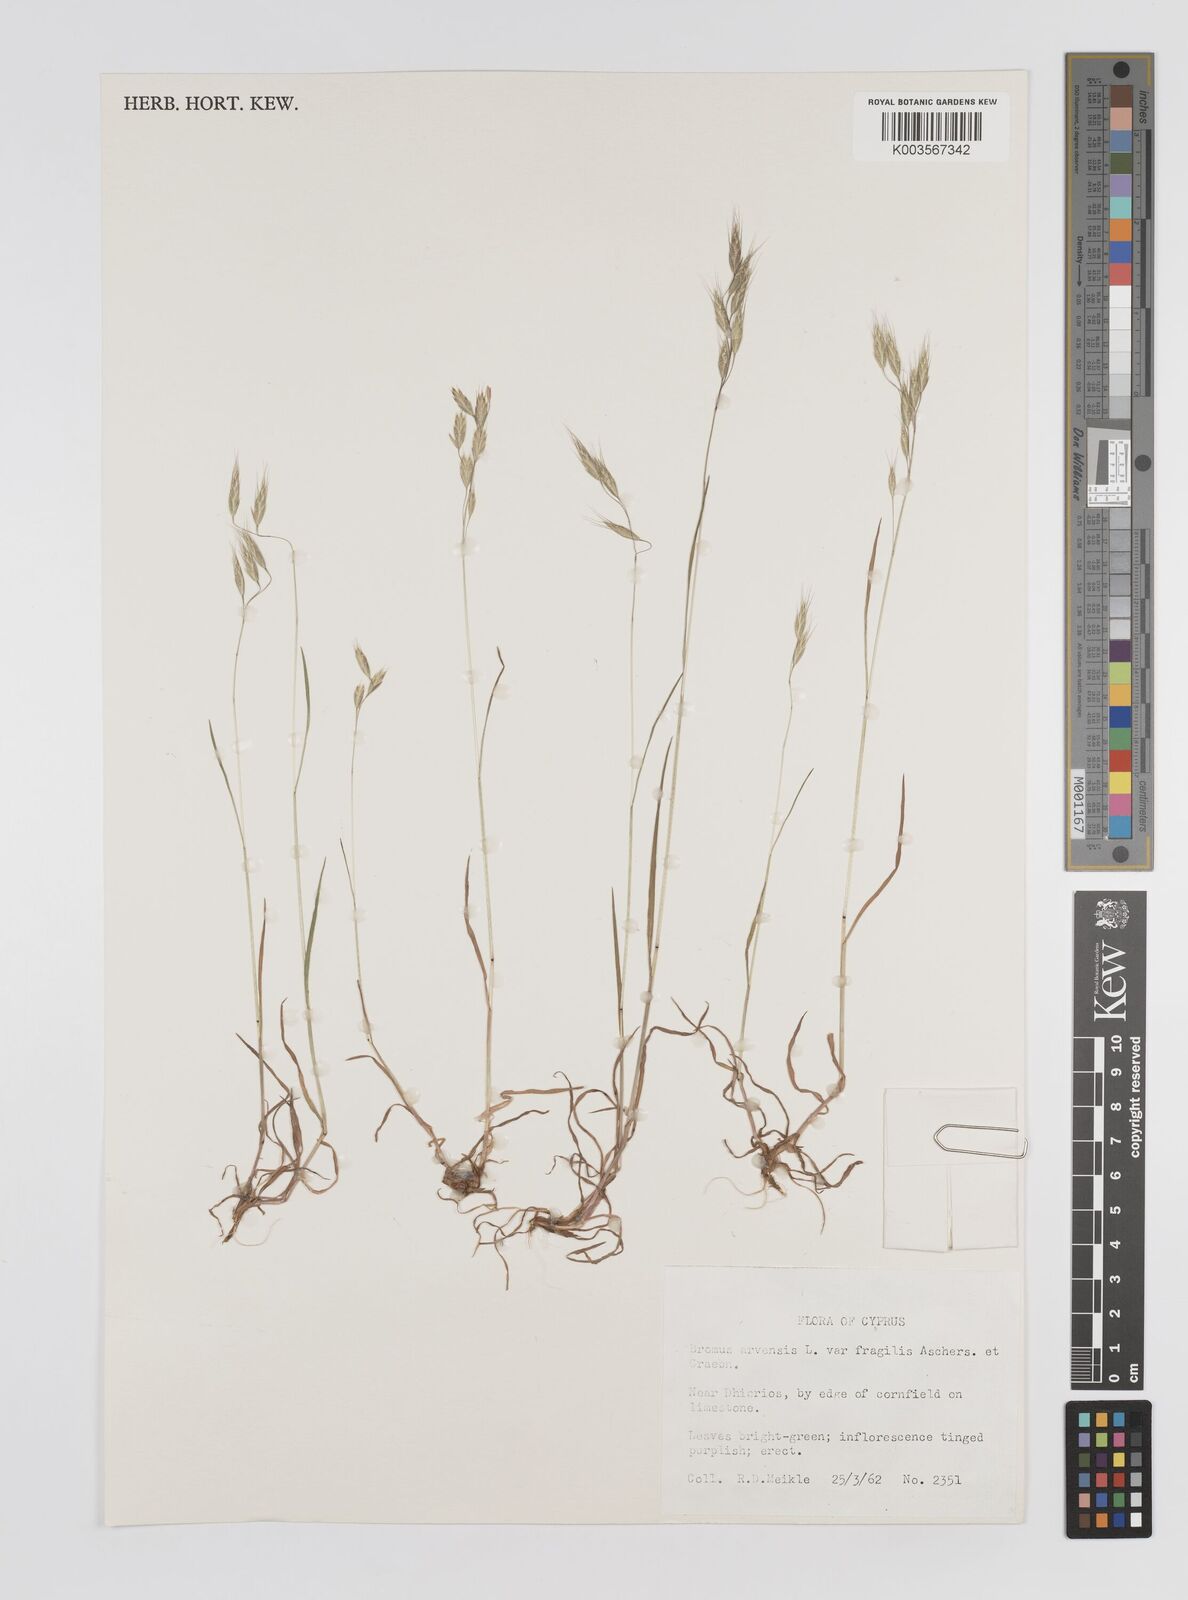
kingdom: Plantae
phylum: Tracheophyta
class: Liliopsida
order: Poales
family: Poaceae
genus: Bromus
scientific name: Bromus arvensis
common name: Field brome
